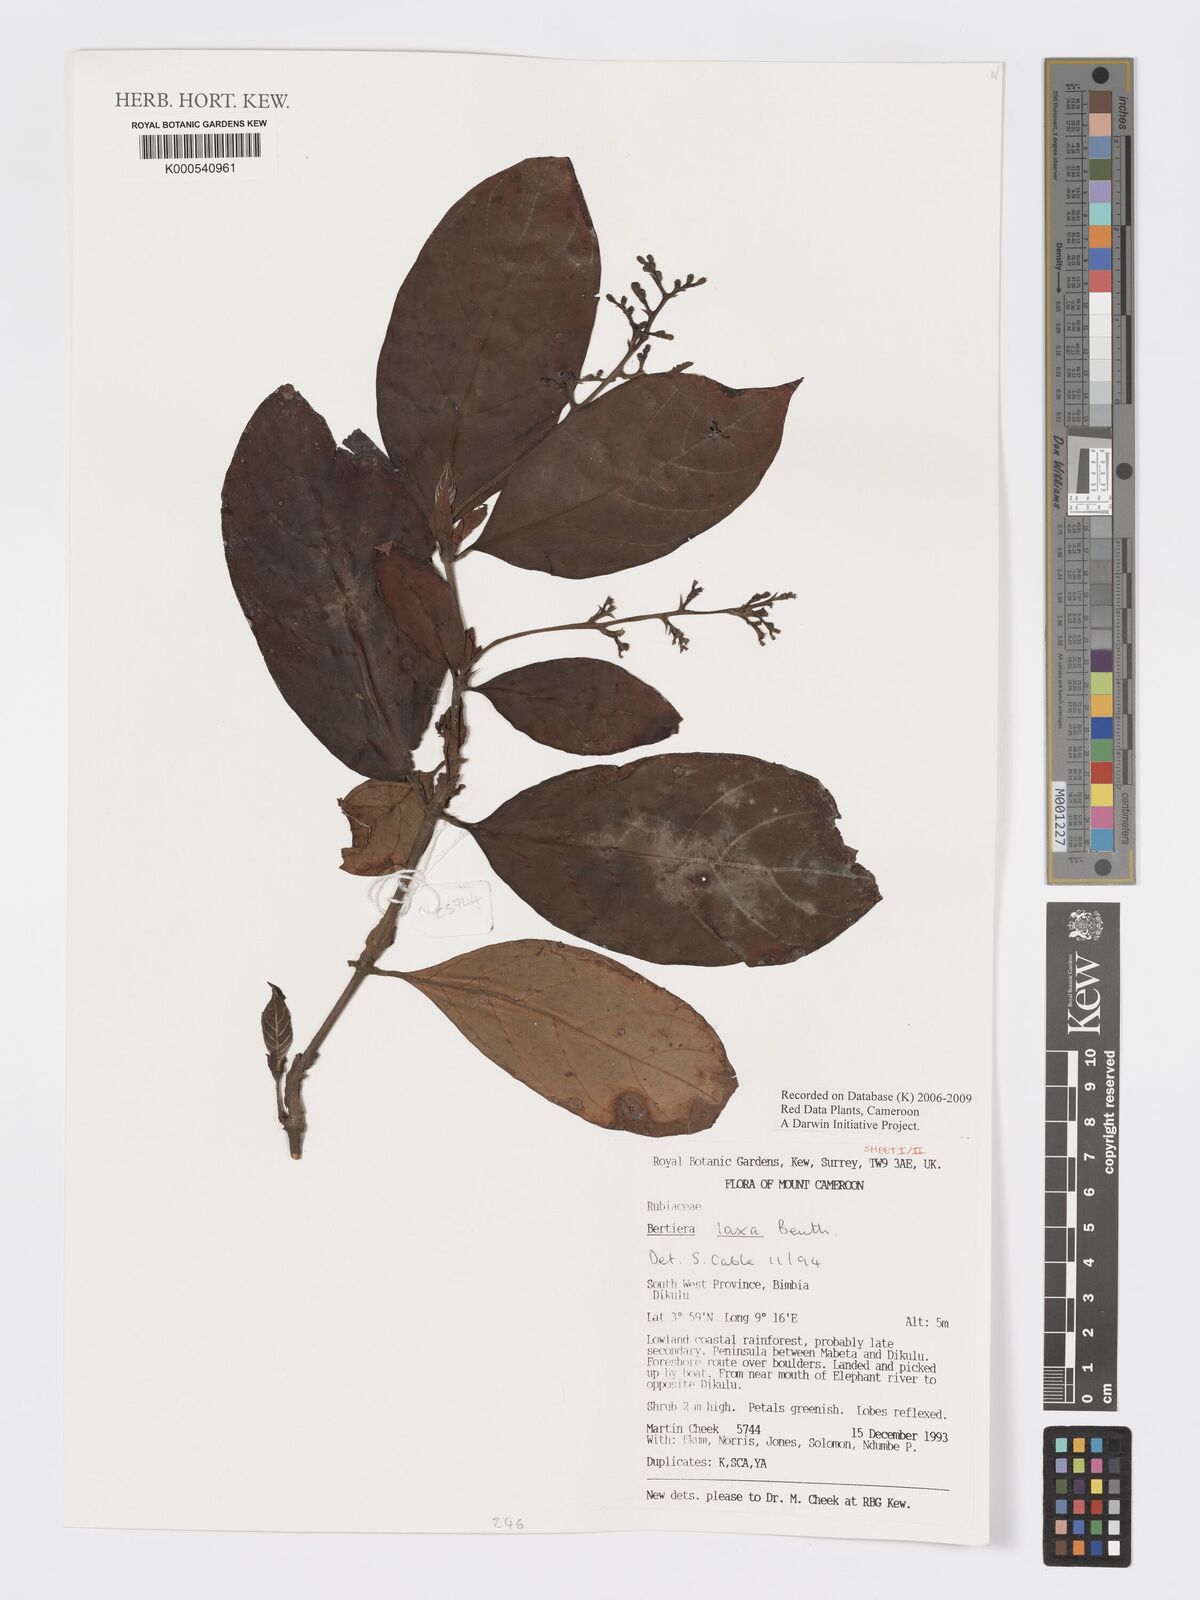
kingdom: Plantae
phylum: Tracheophyta
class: Magnoliopsida
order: Gentianales
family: Rubiaceae
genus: Bertiera
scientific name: Bertiera laxa
